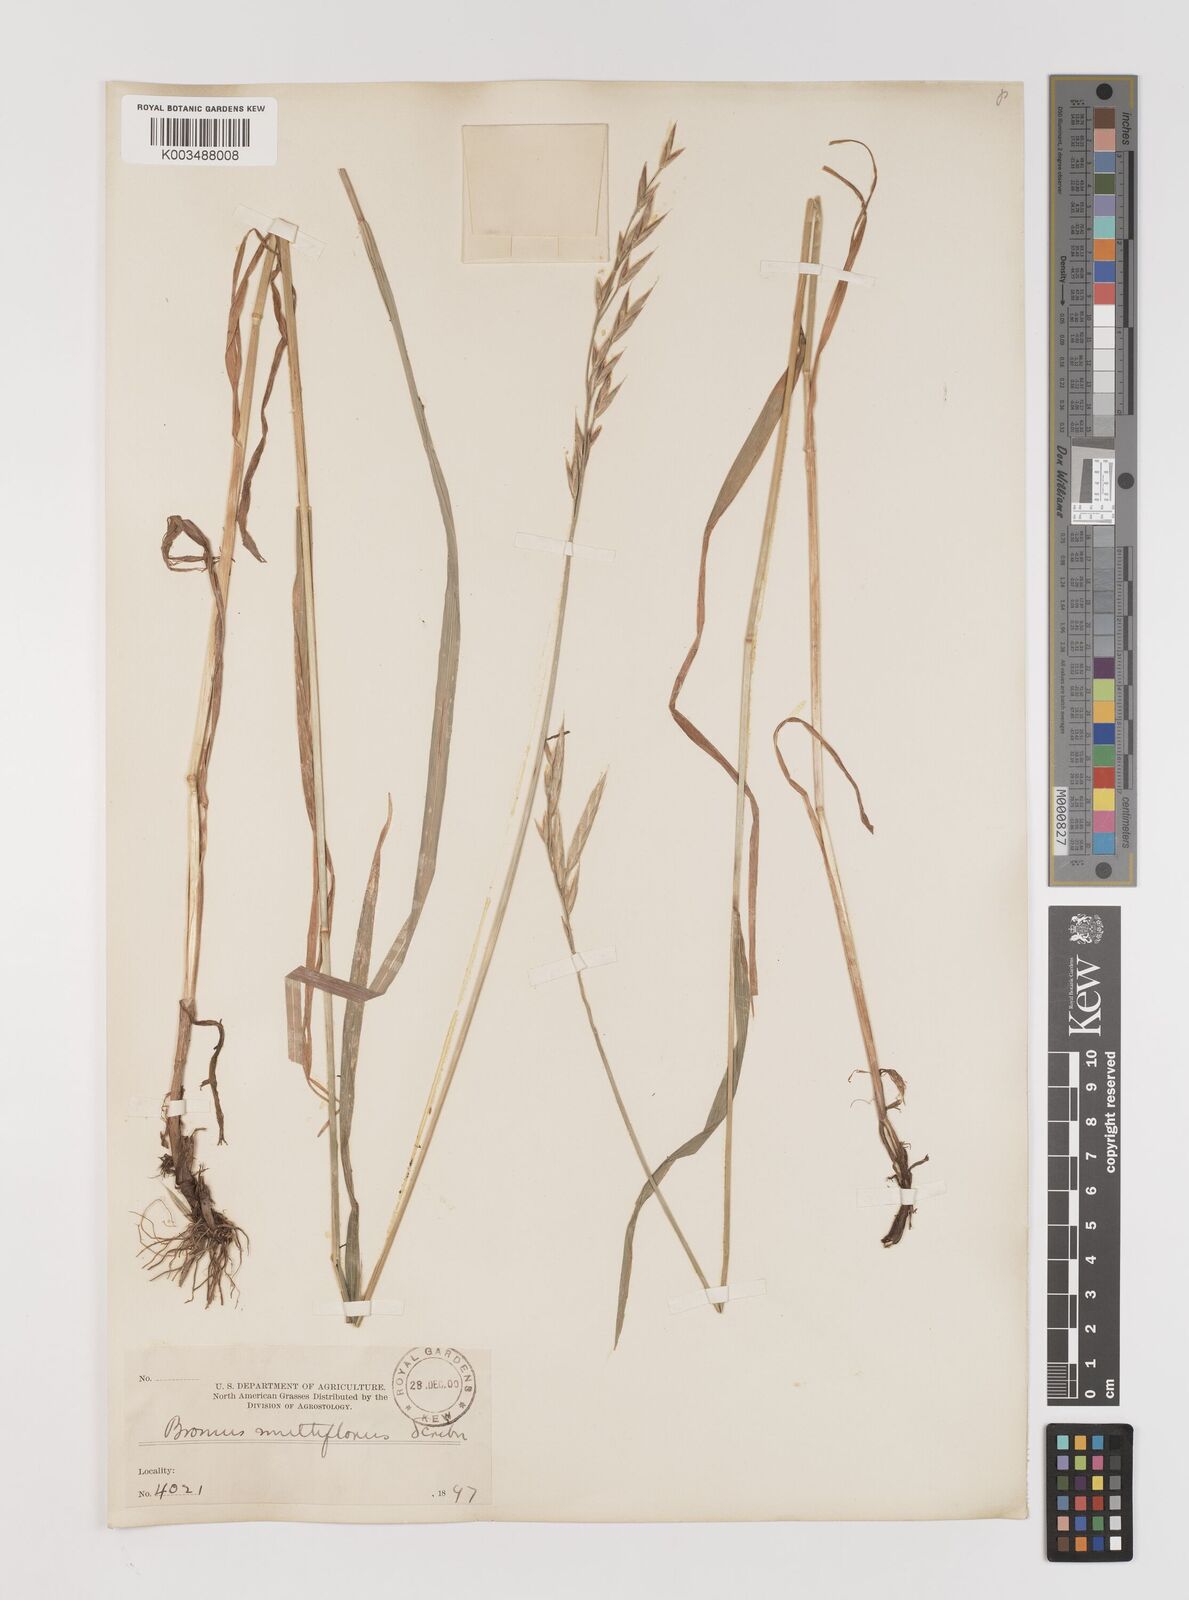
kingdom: Plantae
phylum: Tracheophyta
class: Liliopsida
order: Poales
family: Poaceae
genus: Bromus
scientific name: Bromus polyanthus
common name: Great basin brome
